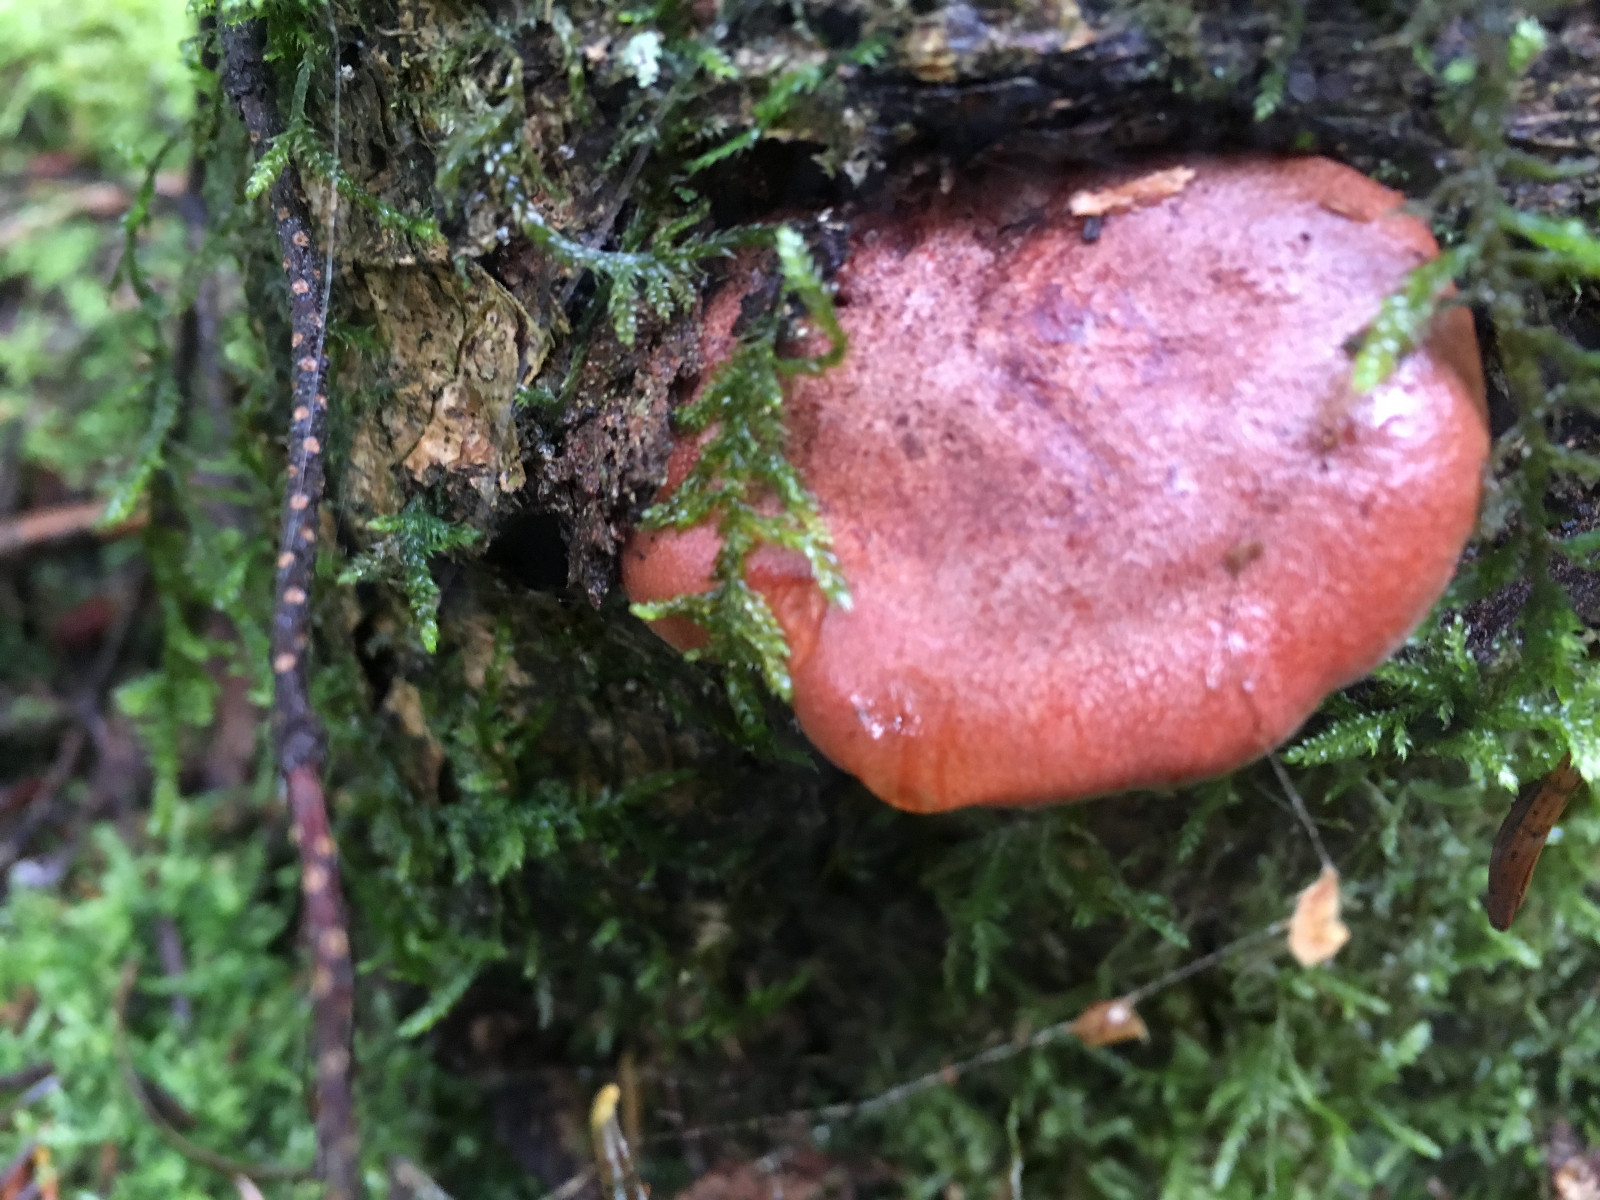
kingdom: Fungi
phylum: Basidiomycota
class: Agaricomycetes
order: Russulales
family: Russulaceae
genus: Lactarius
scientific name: Lactarius rufus
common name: rødbrun mælkehat
